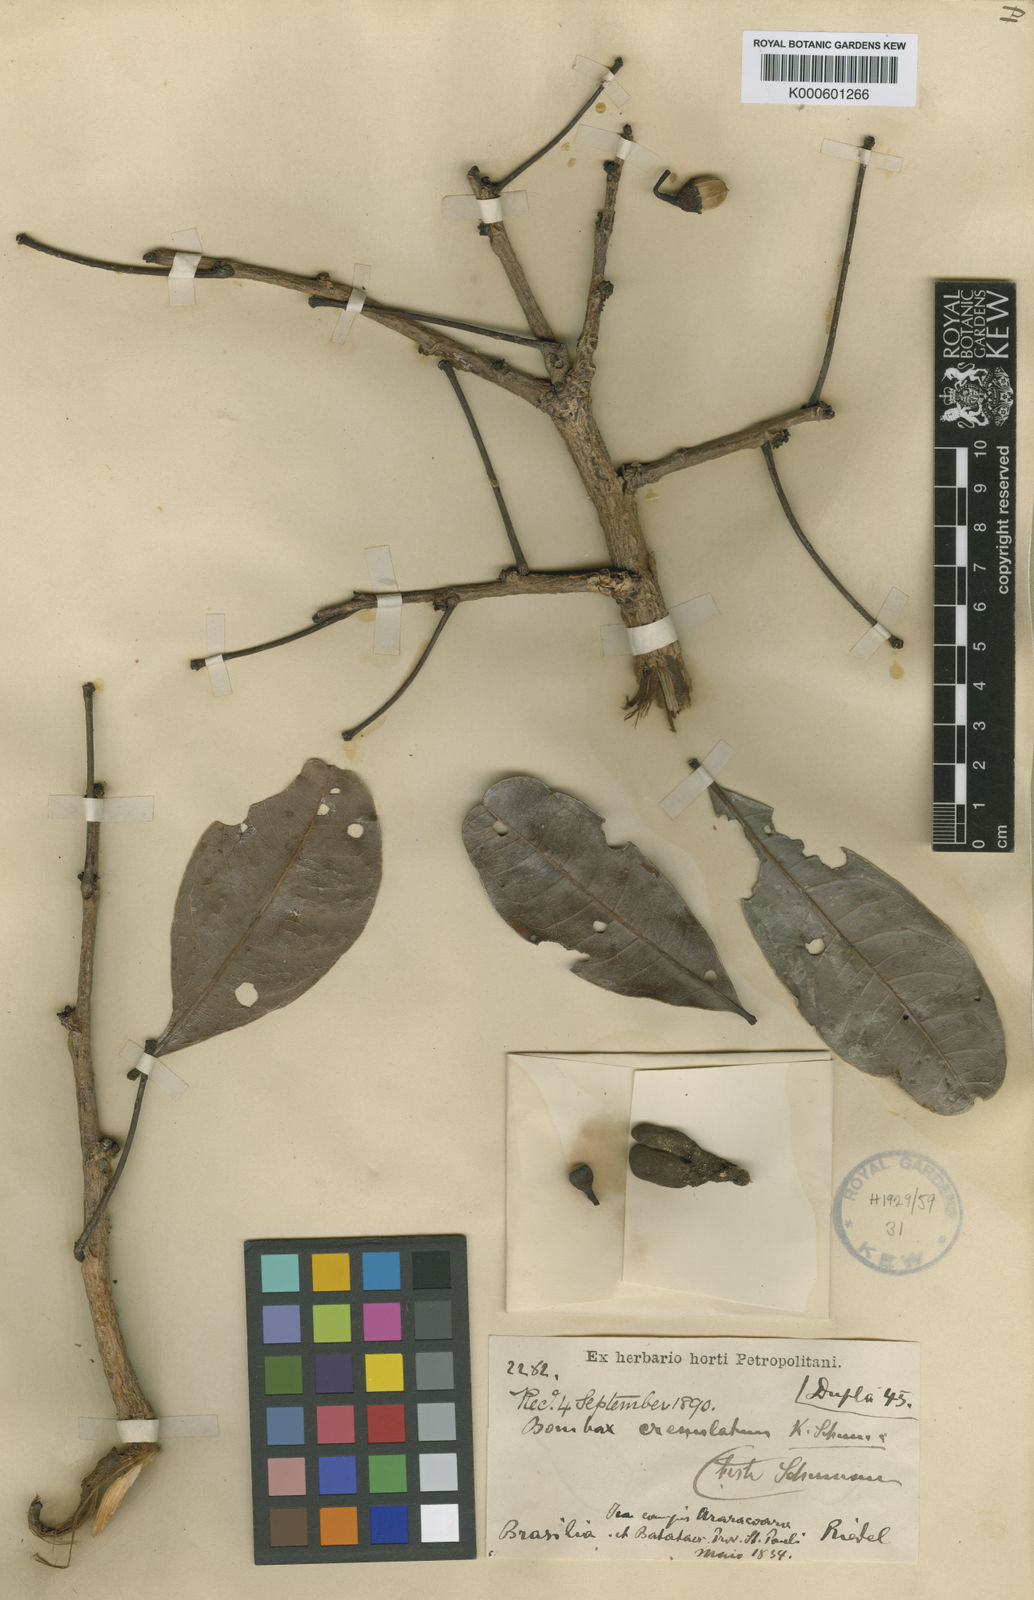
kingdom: Plantae
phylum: Tracheophyta
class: Magnoliopsida
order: Malvales
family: Malvaceae
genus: Eriotheca
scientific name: Eriotheca gracilipes
